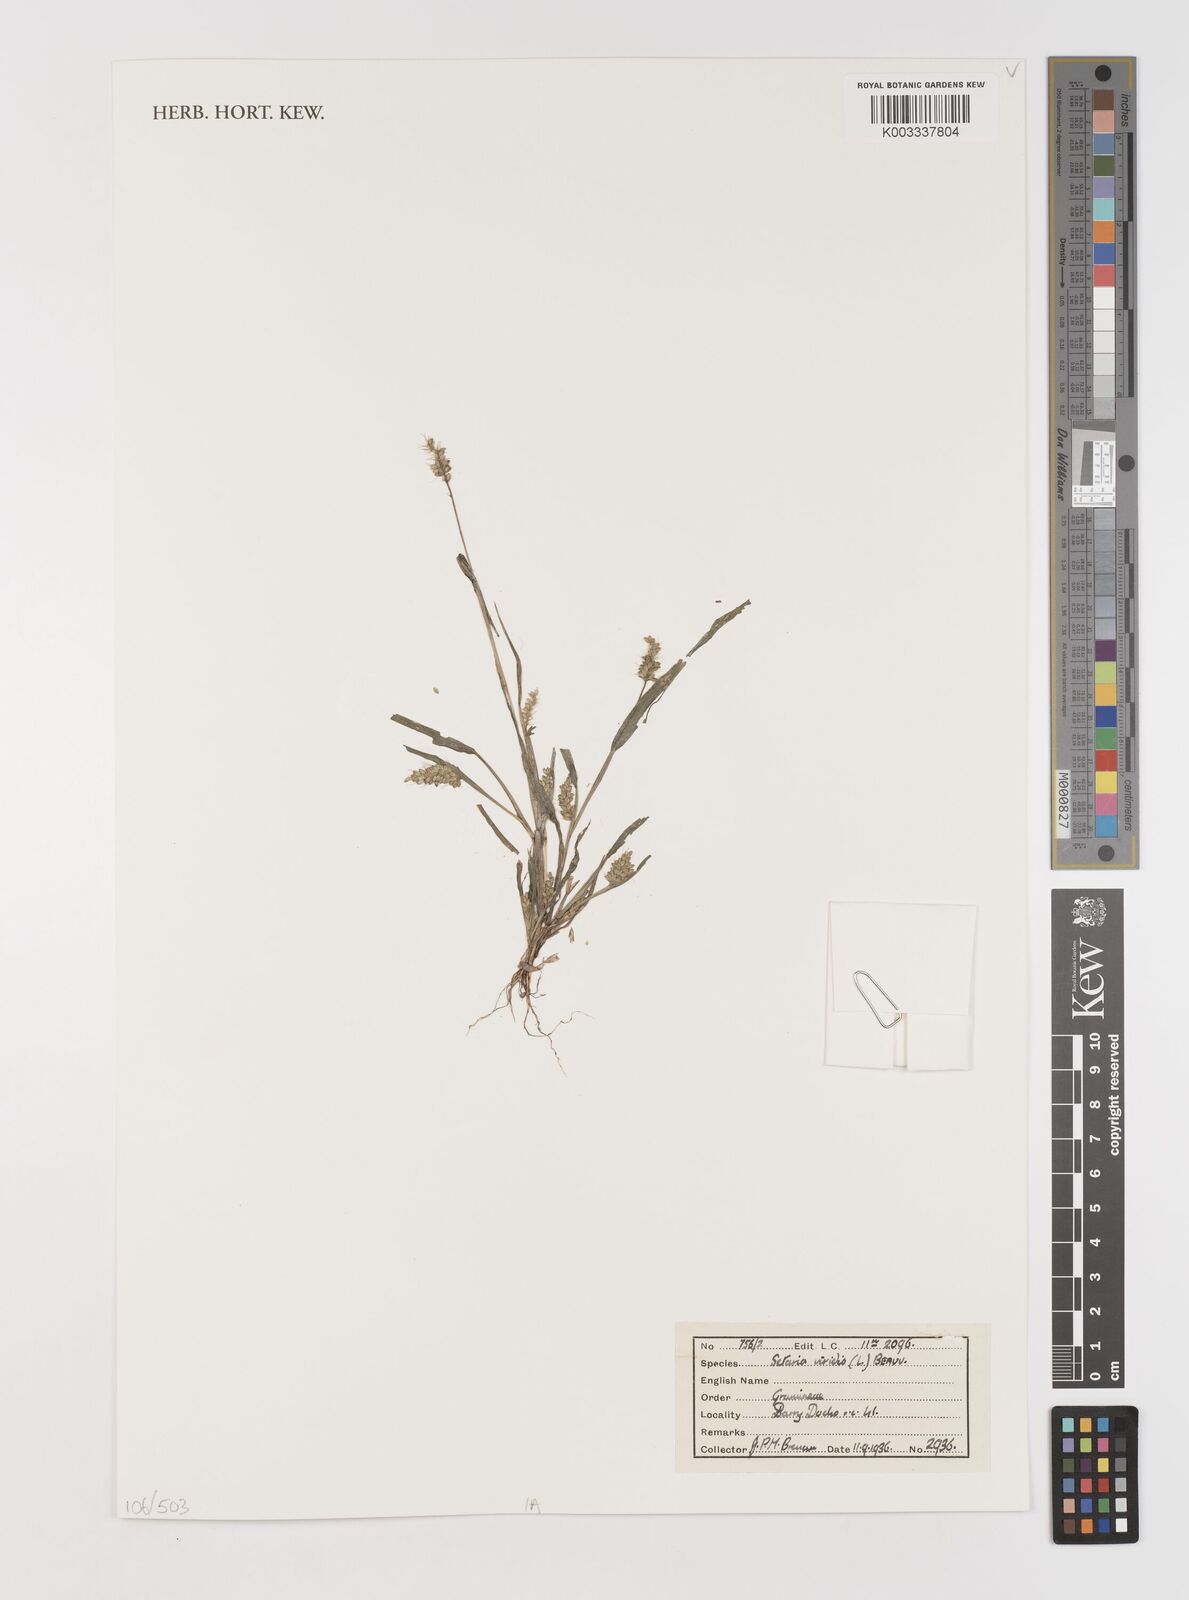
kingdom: Plantae
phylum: Tracheophyta
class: Liliopsida
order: Poales
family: Poaceae
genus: Setaria
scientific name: Setaria viridis
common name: Green bristlegrass
